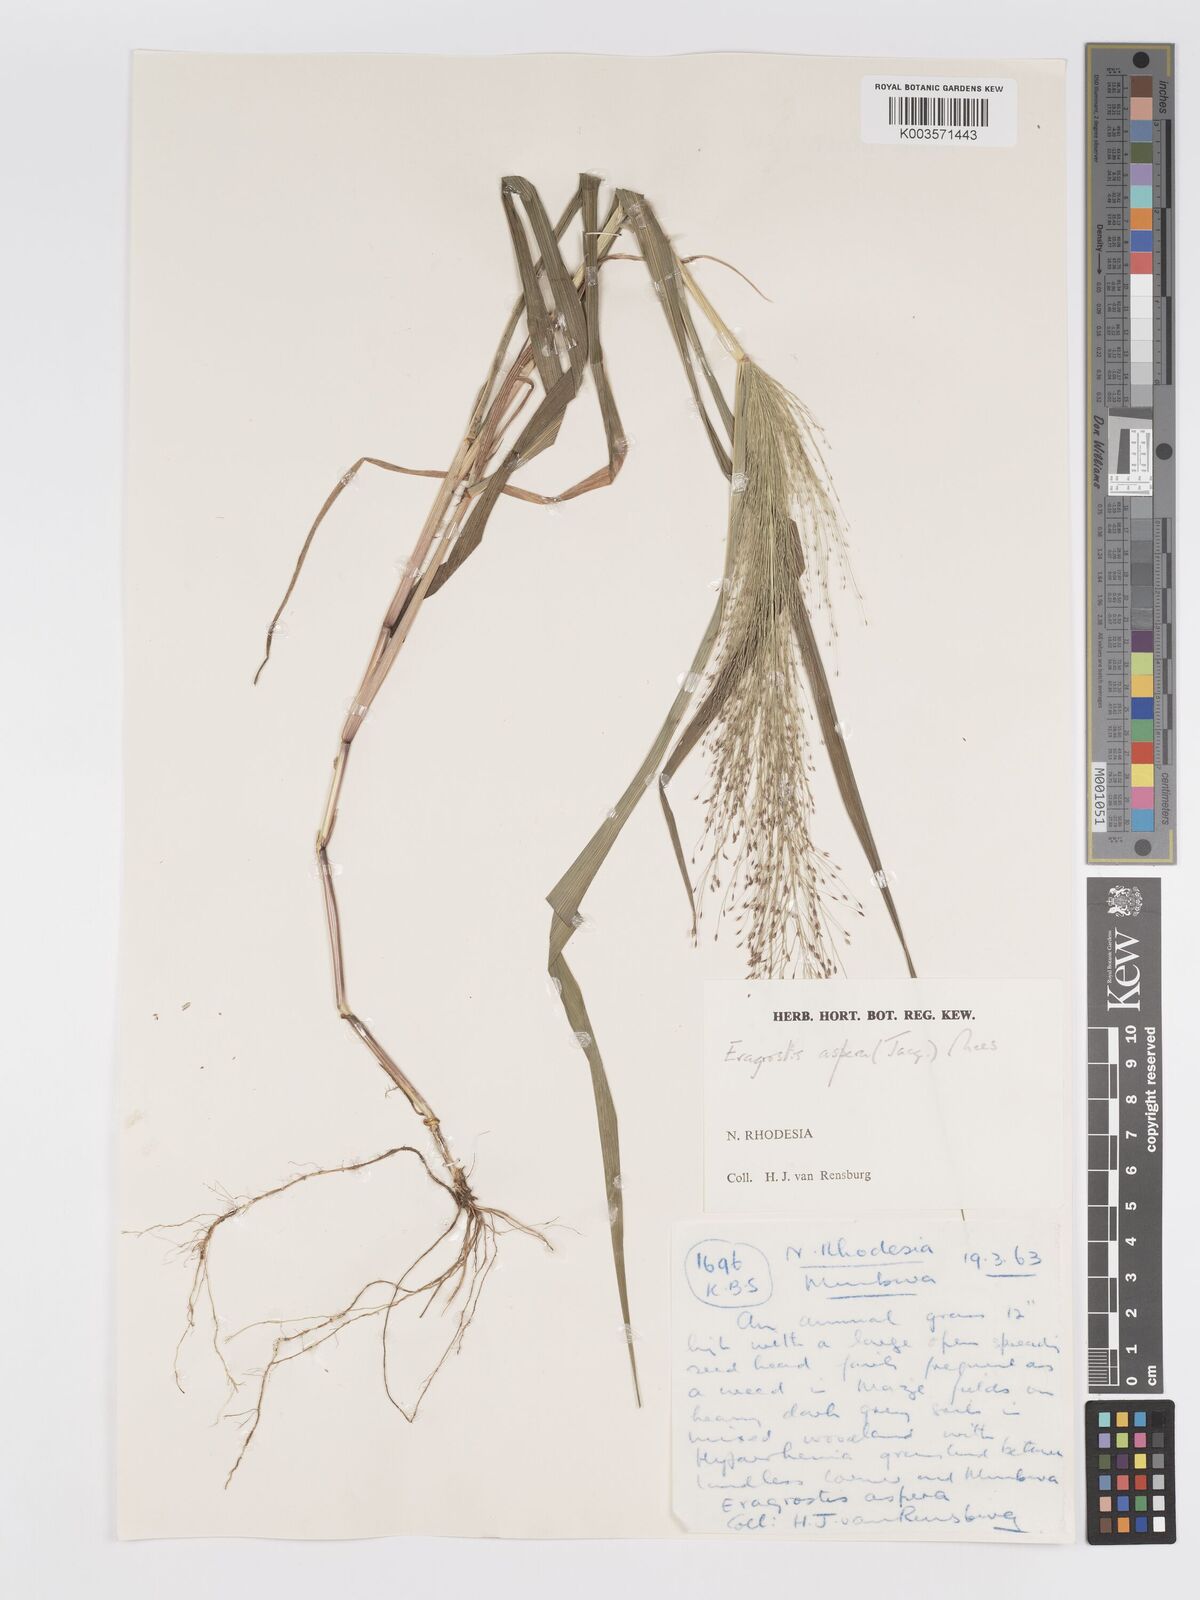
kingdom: Plantae
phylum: Tracheophyta
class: Liliopsida
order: Poales
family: Poaceae
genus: Eragrostis
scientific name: Eragrostis aspera
